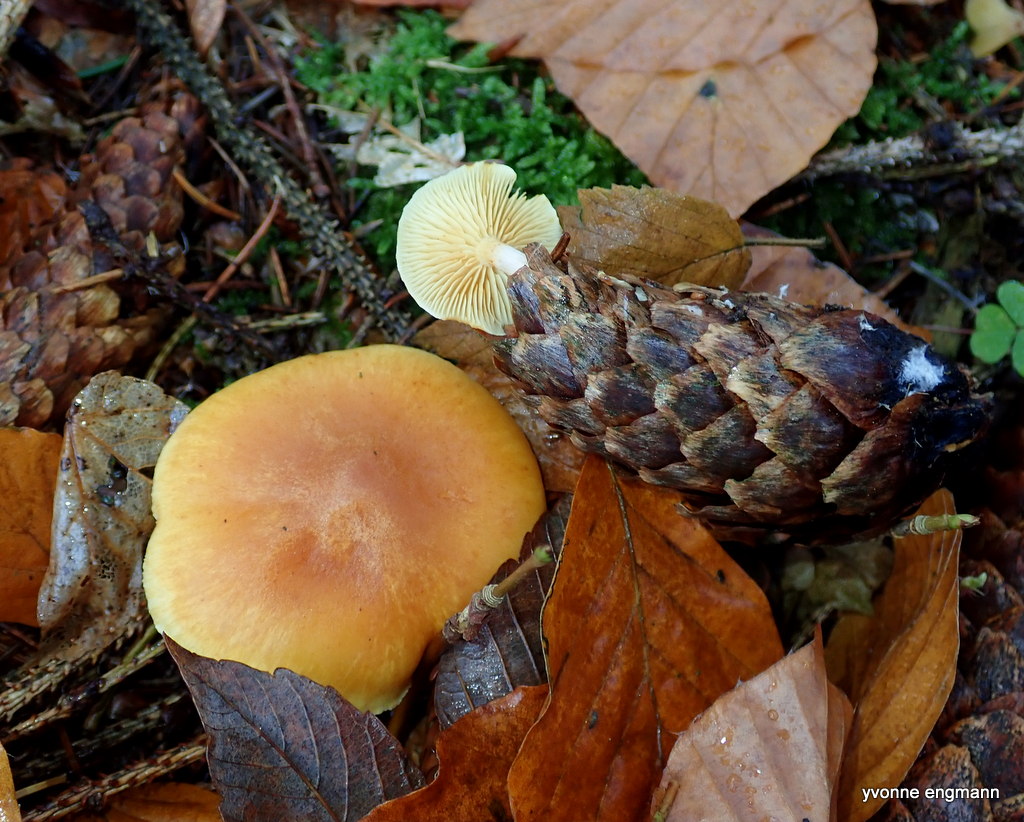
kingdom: Fungi
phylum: Basidiomycota
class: Agaricomycetes
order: Agaricales
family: Hymenogastraceae
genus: Gymnopilus
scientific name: Gymnopilus penetrans
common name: plettet flammehat
